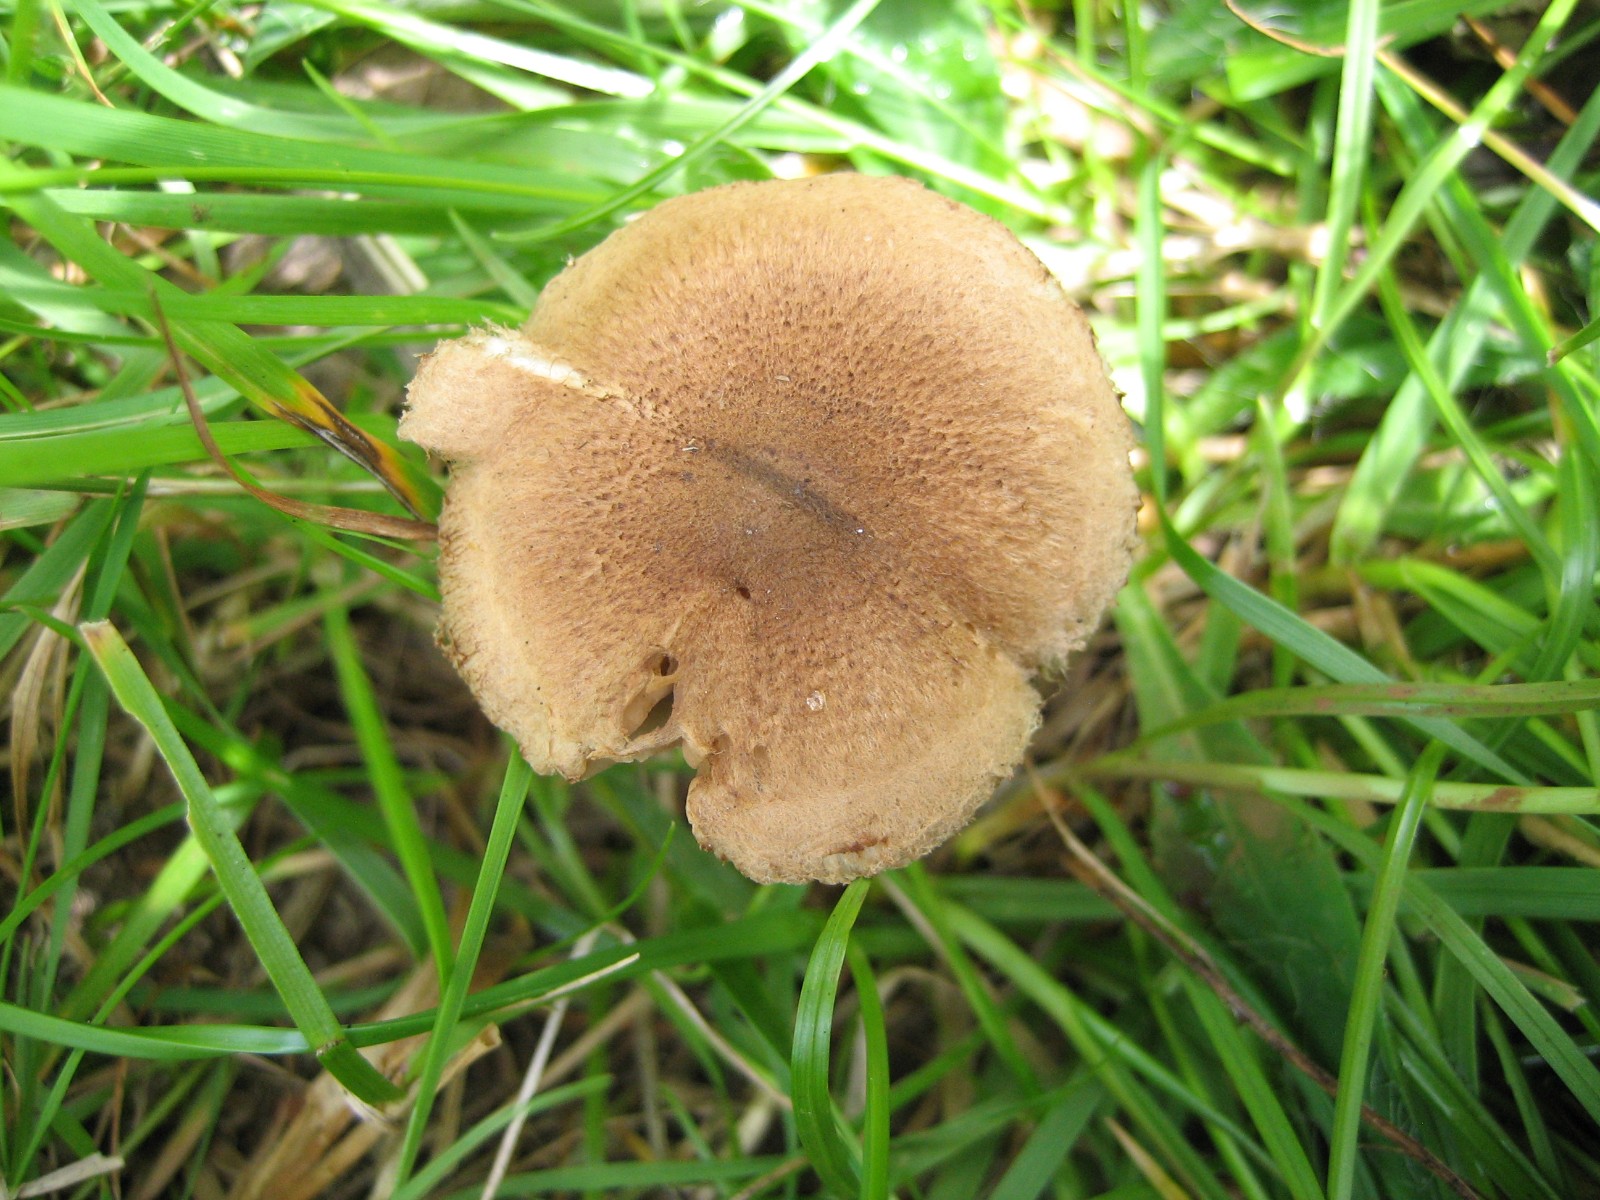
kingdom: Fungi
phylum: Basidiomycota
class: Agaricomycetes
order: Agaricales
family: Inocybaceae
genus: Inocybe
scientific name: Inocybe
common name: trævlhat
